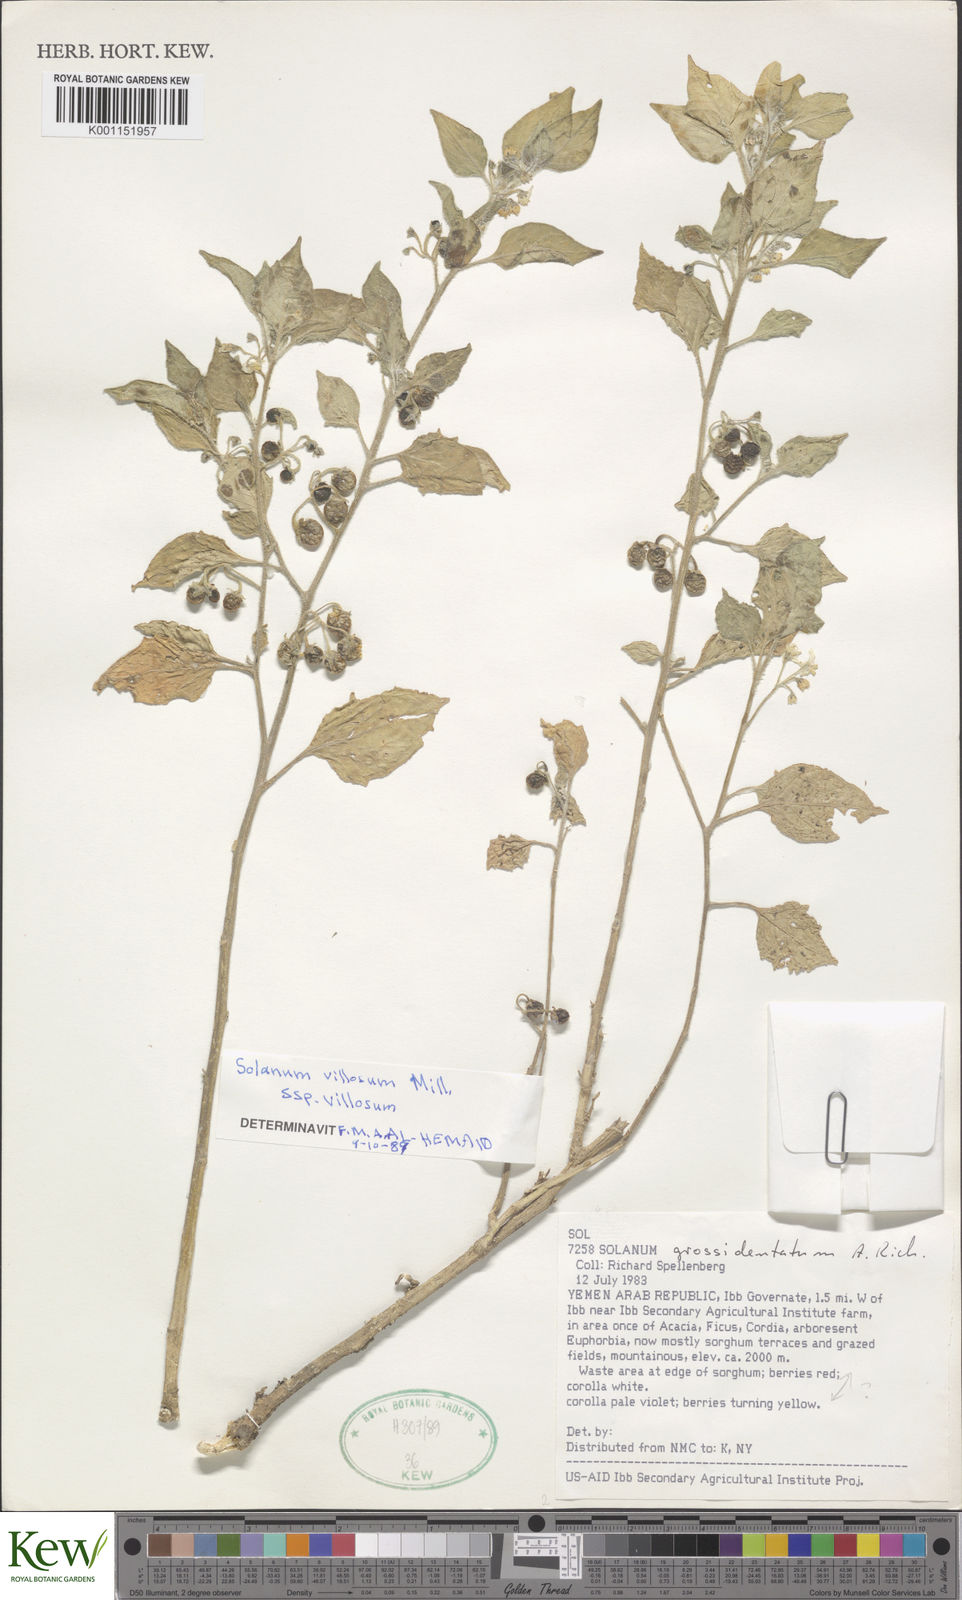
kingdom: Plantae
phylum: Tracheophyta
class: Magnoliopsida
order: Solanales
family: Solanaceae
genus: Solanum
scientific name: Solanum
